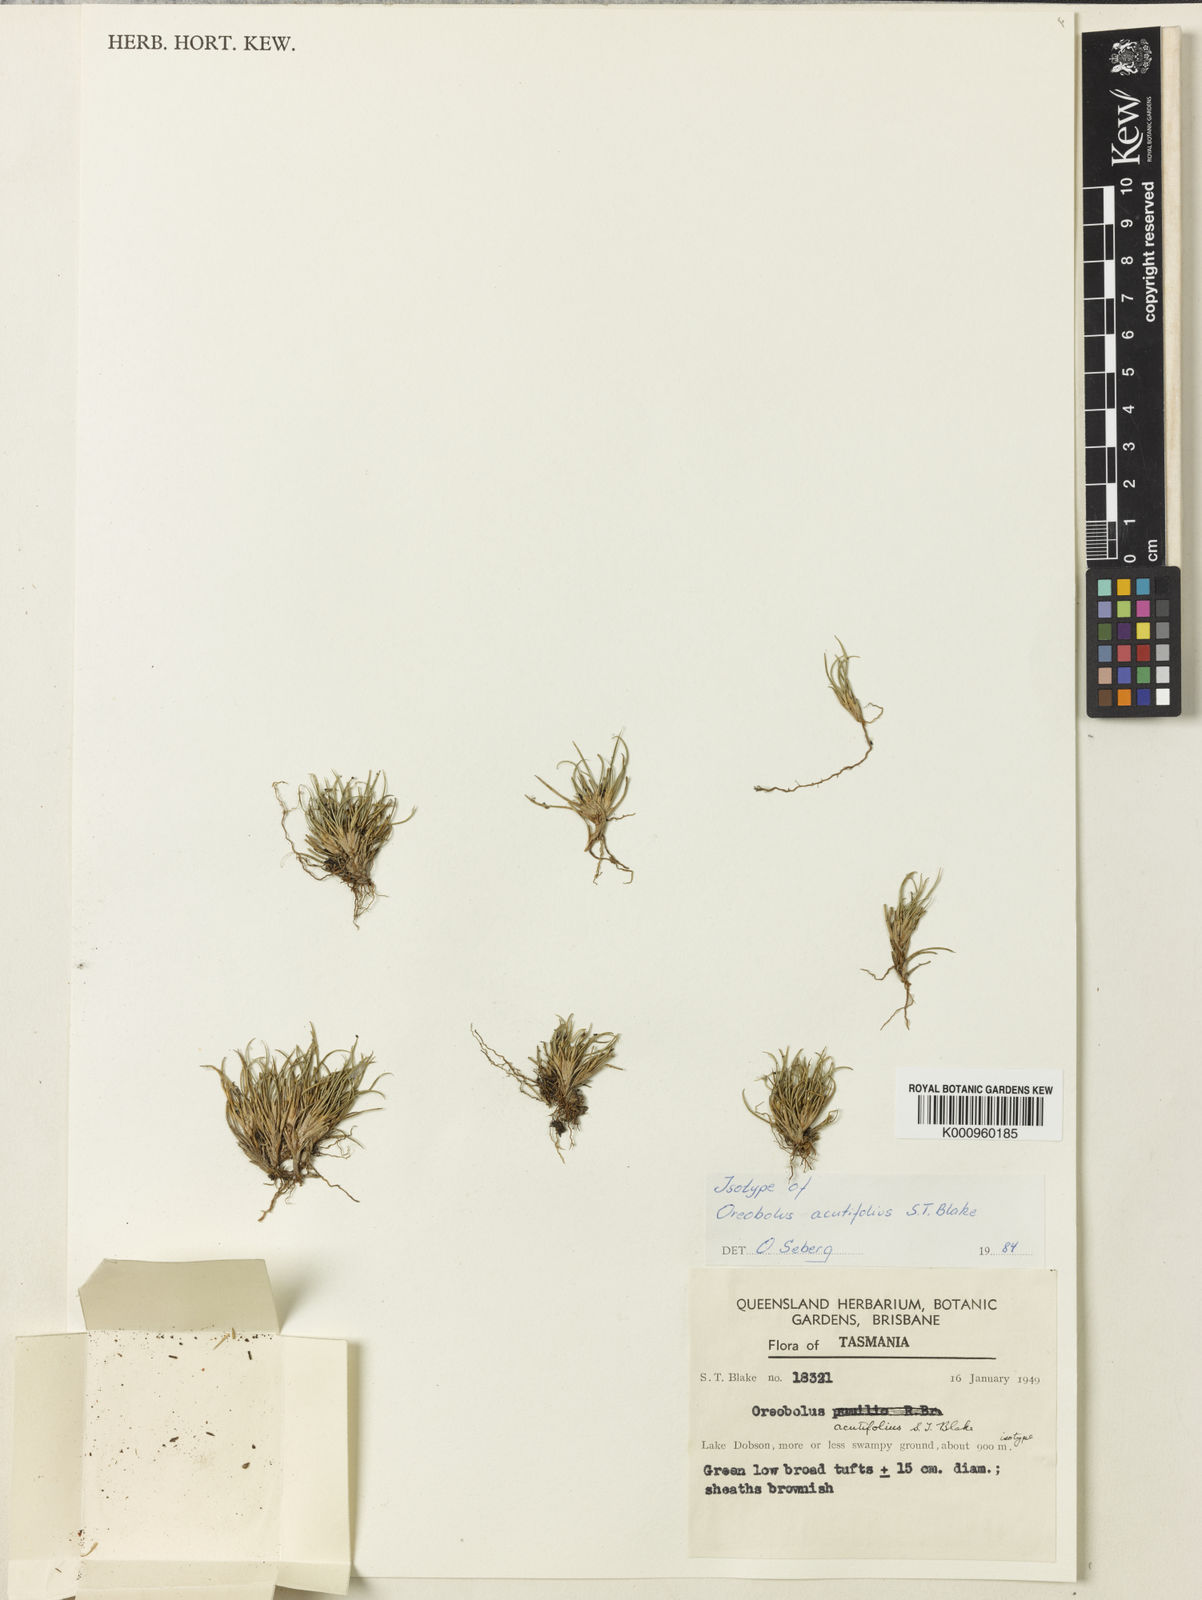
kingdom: Plantae
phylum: Tracheophyta
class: Liliopsida
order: Poales
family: Cyperaceae
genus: Oreobolus
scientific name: Oreobolus acutifolius
